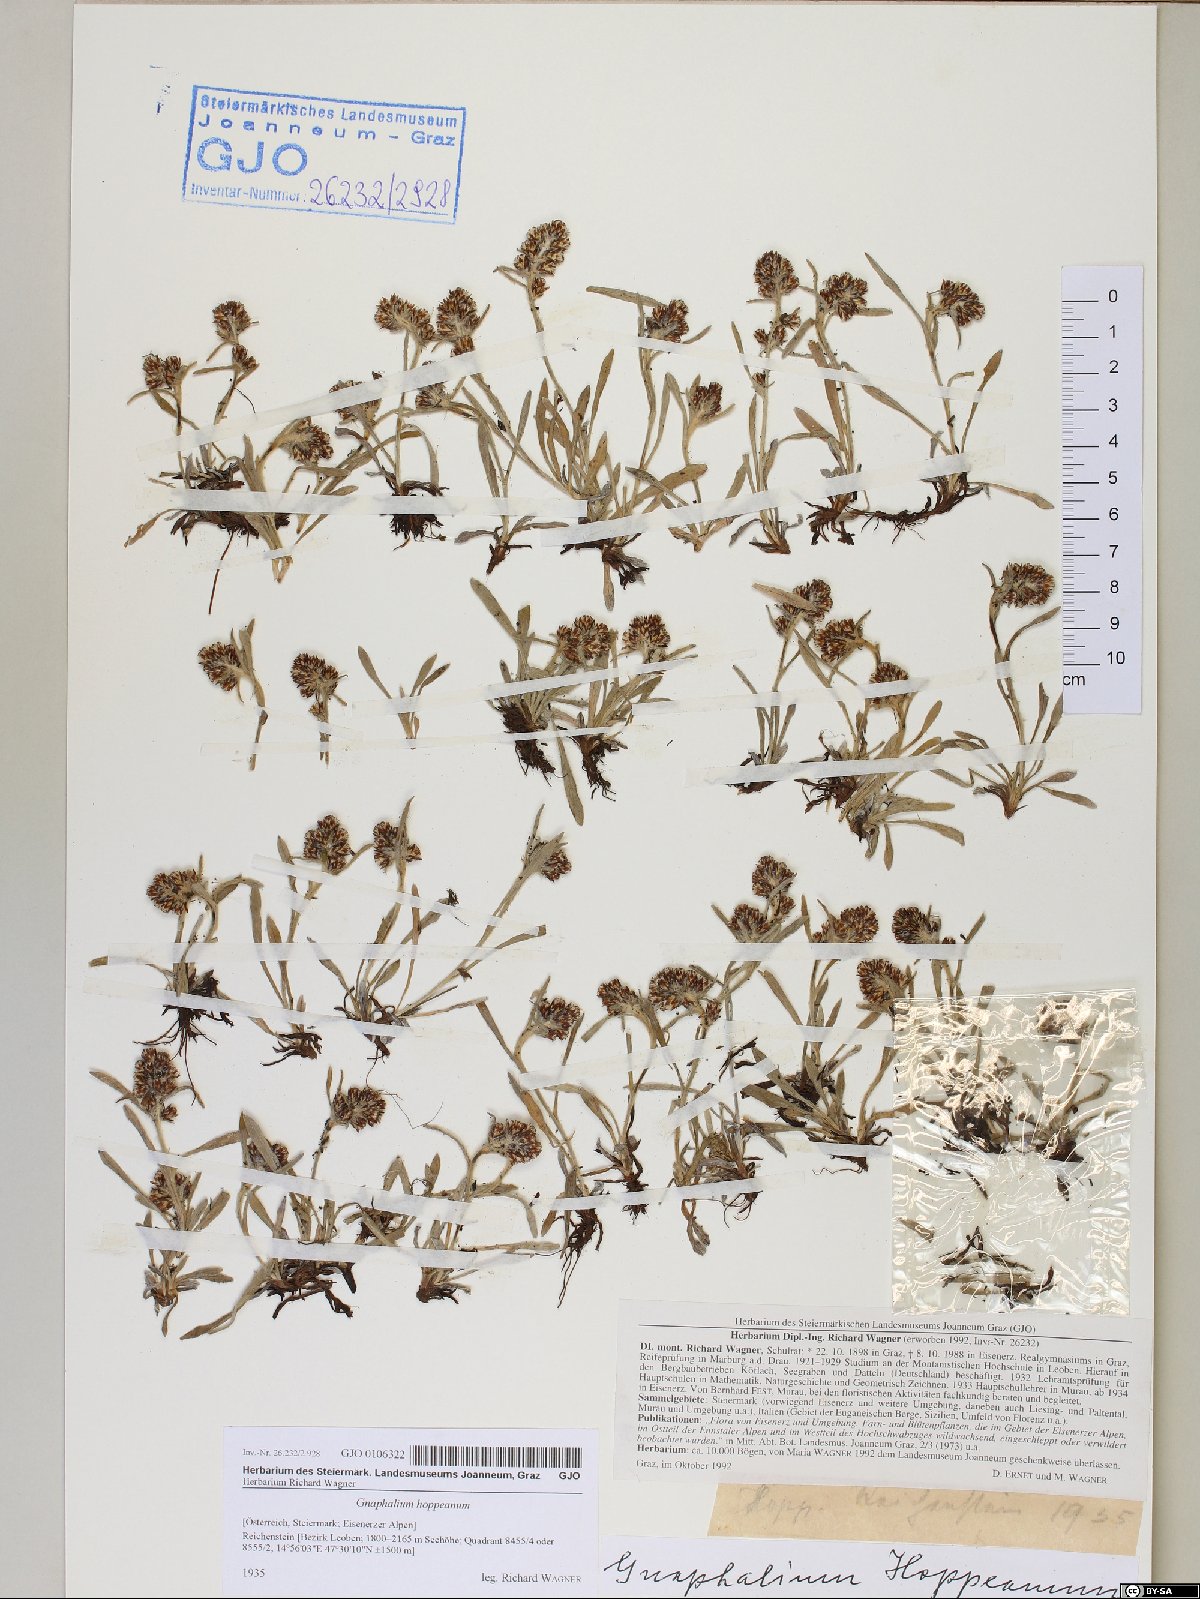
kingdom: Plantae
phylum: Tracheophyta
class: Magnoliopsida
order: Asterales
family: Asteraceae
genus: Omalotheca
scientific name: Omalotheca hoppeana
